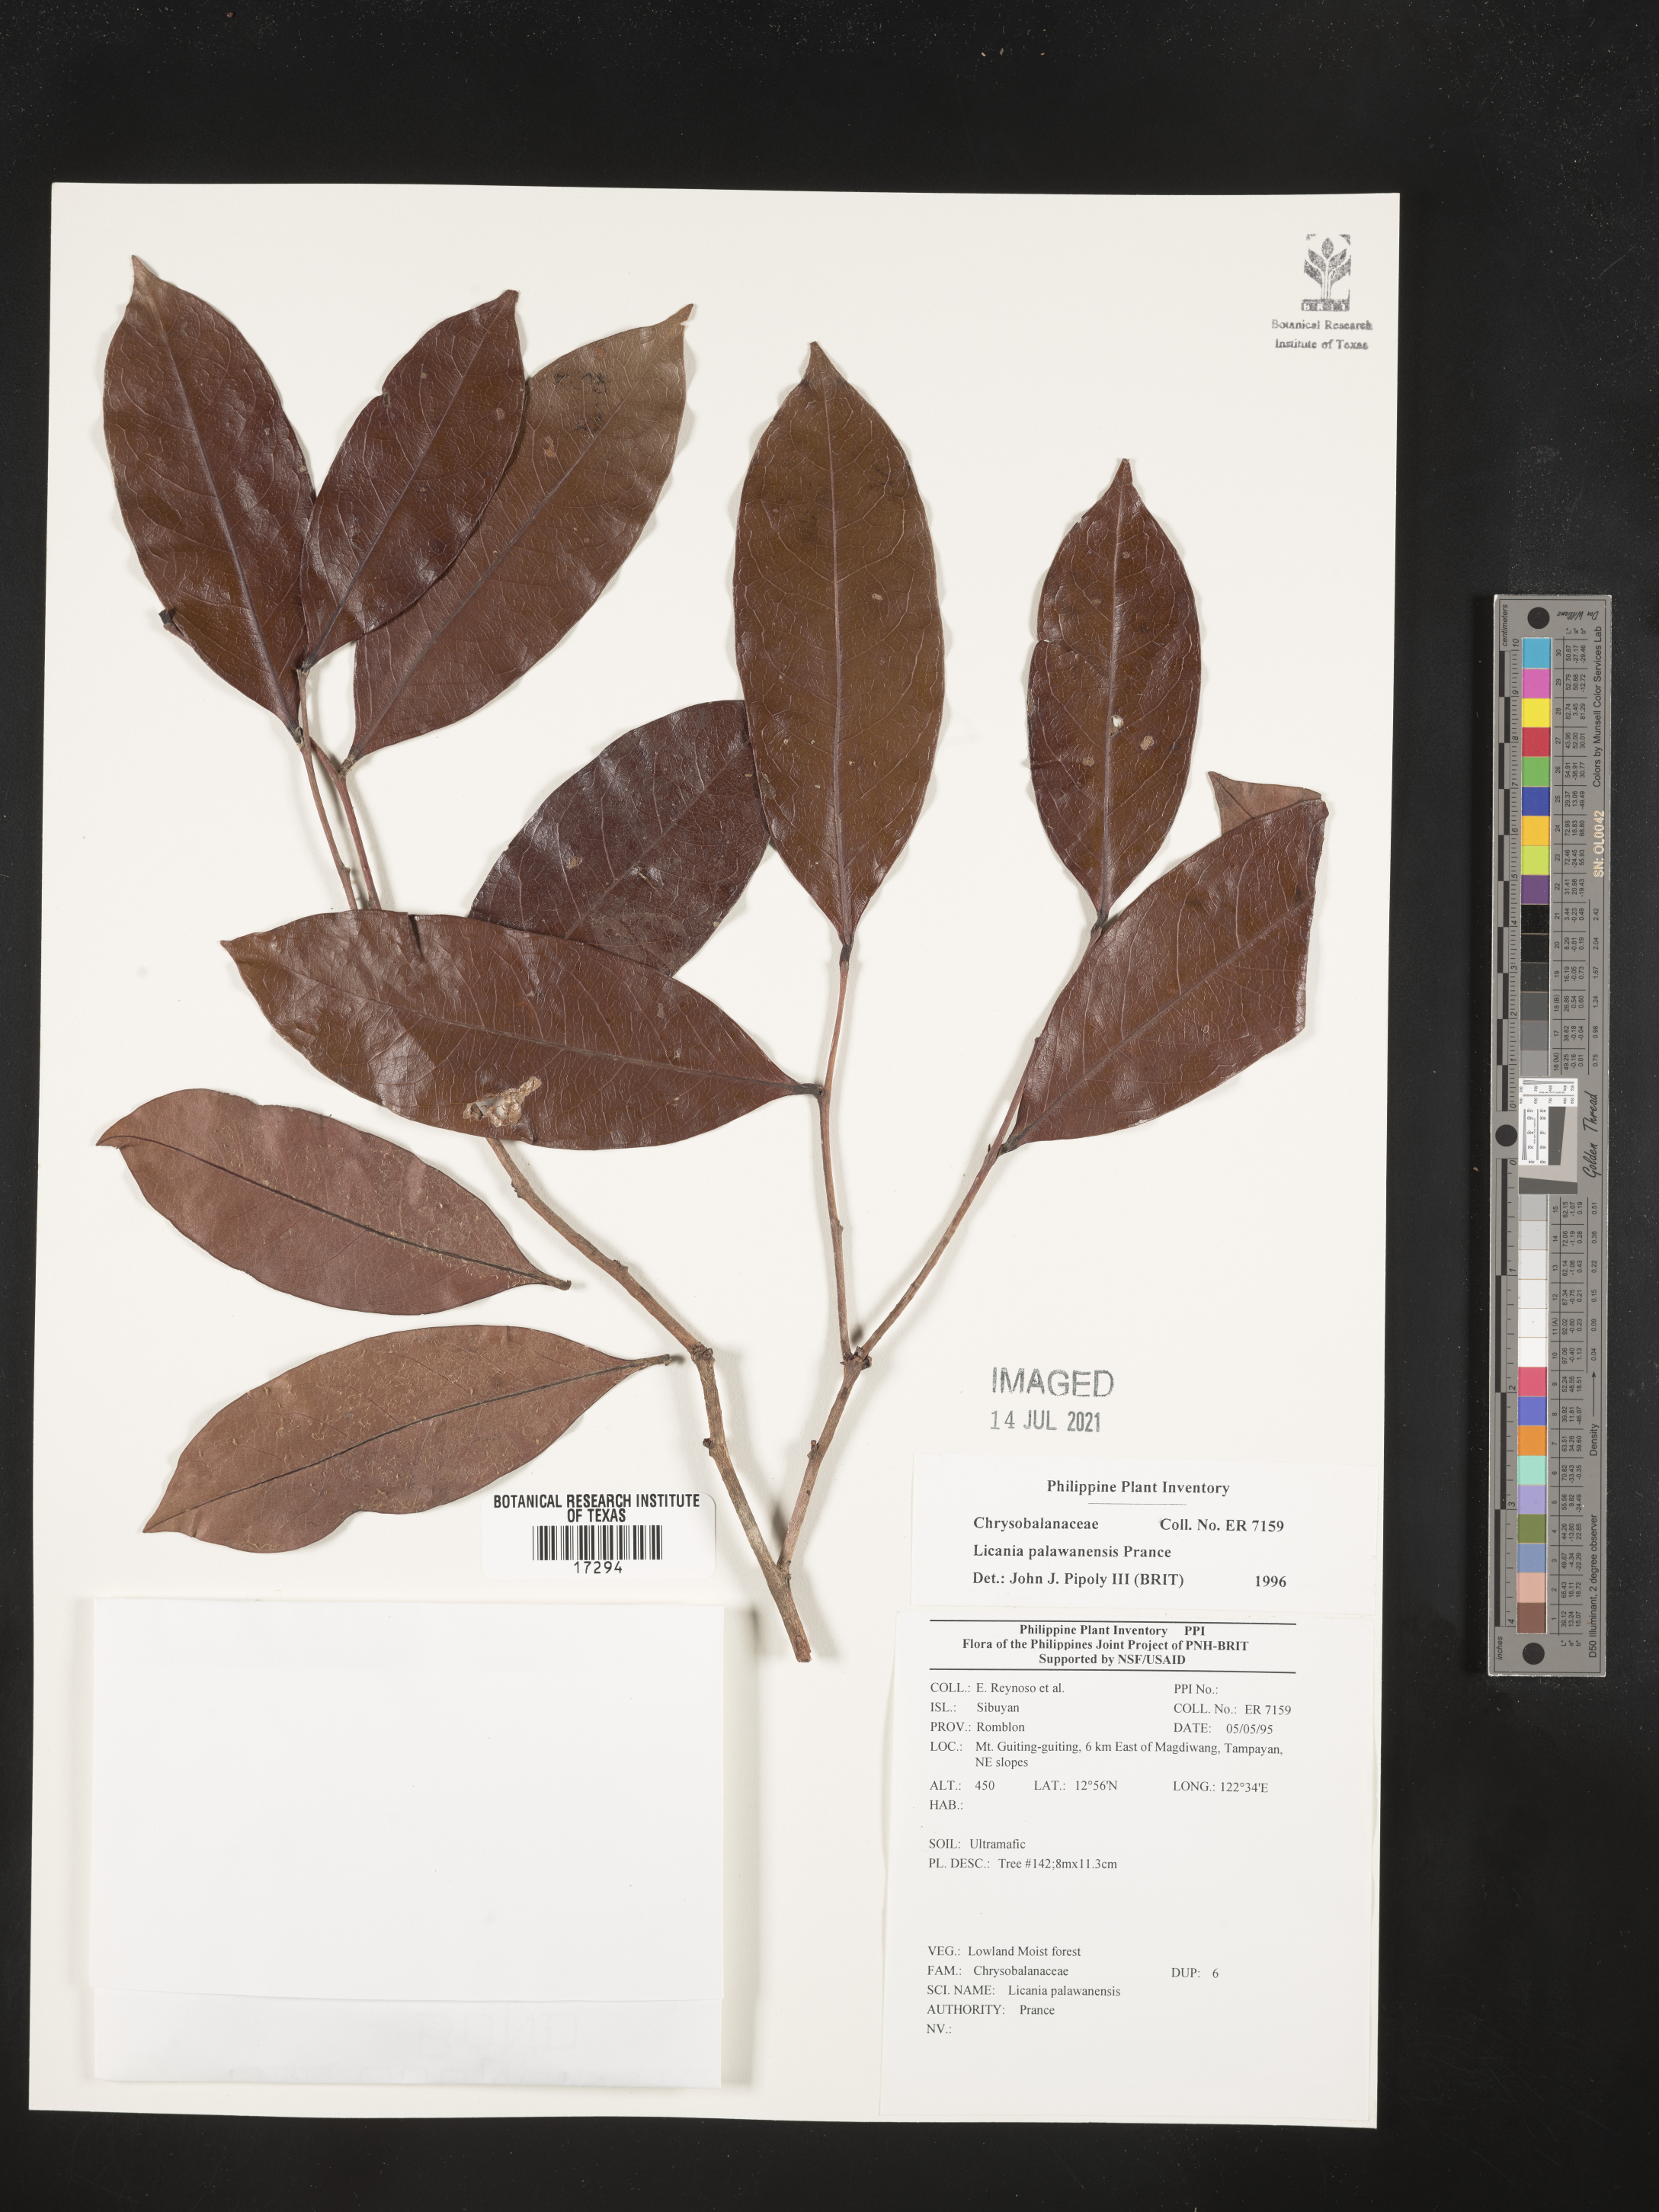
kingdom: Plantae
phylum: Tracheophyta
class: Magnoliopsida
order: Malpighiales
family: Chrysobalanaceae
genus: Angelesia
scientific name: Angelesia palawanensis
